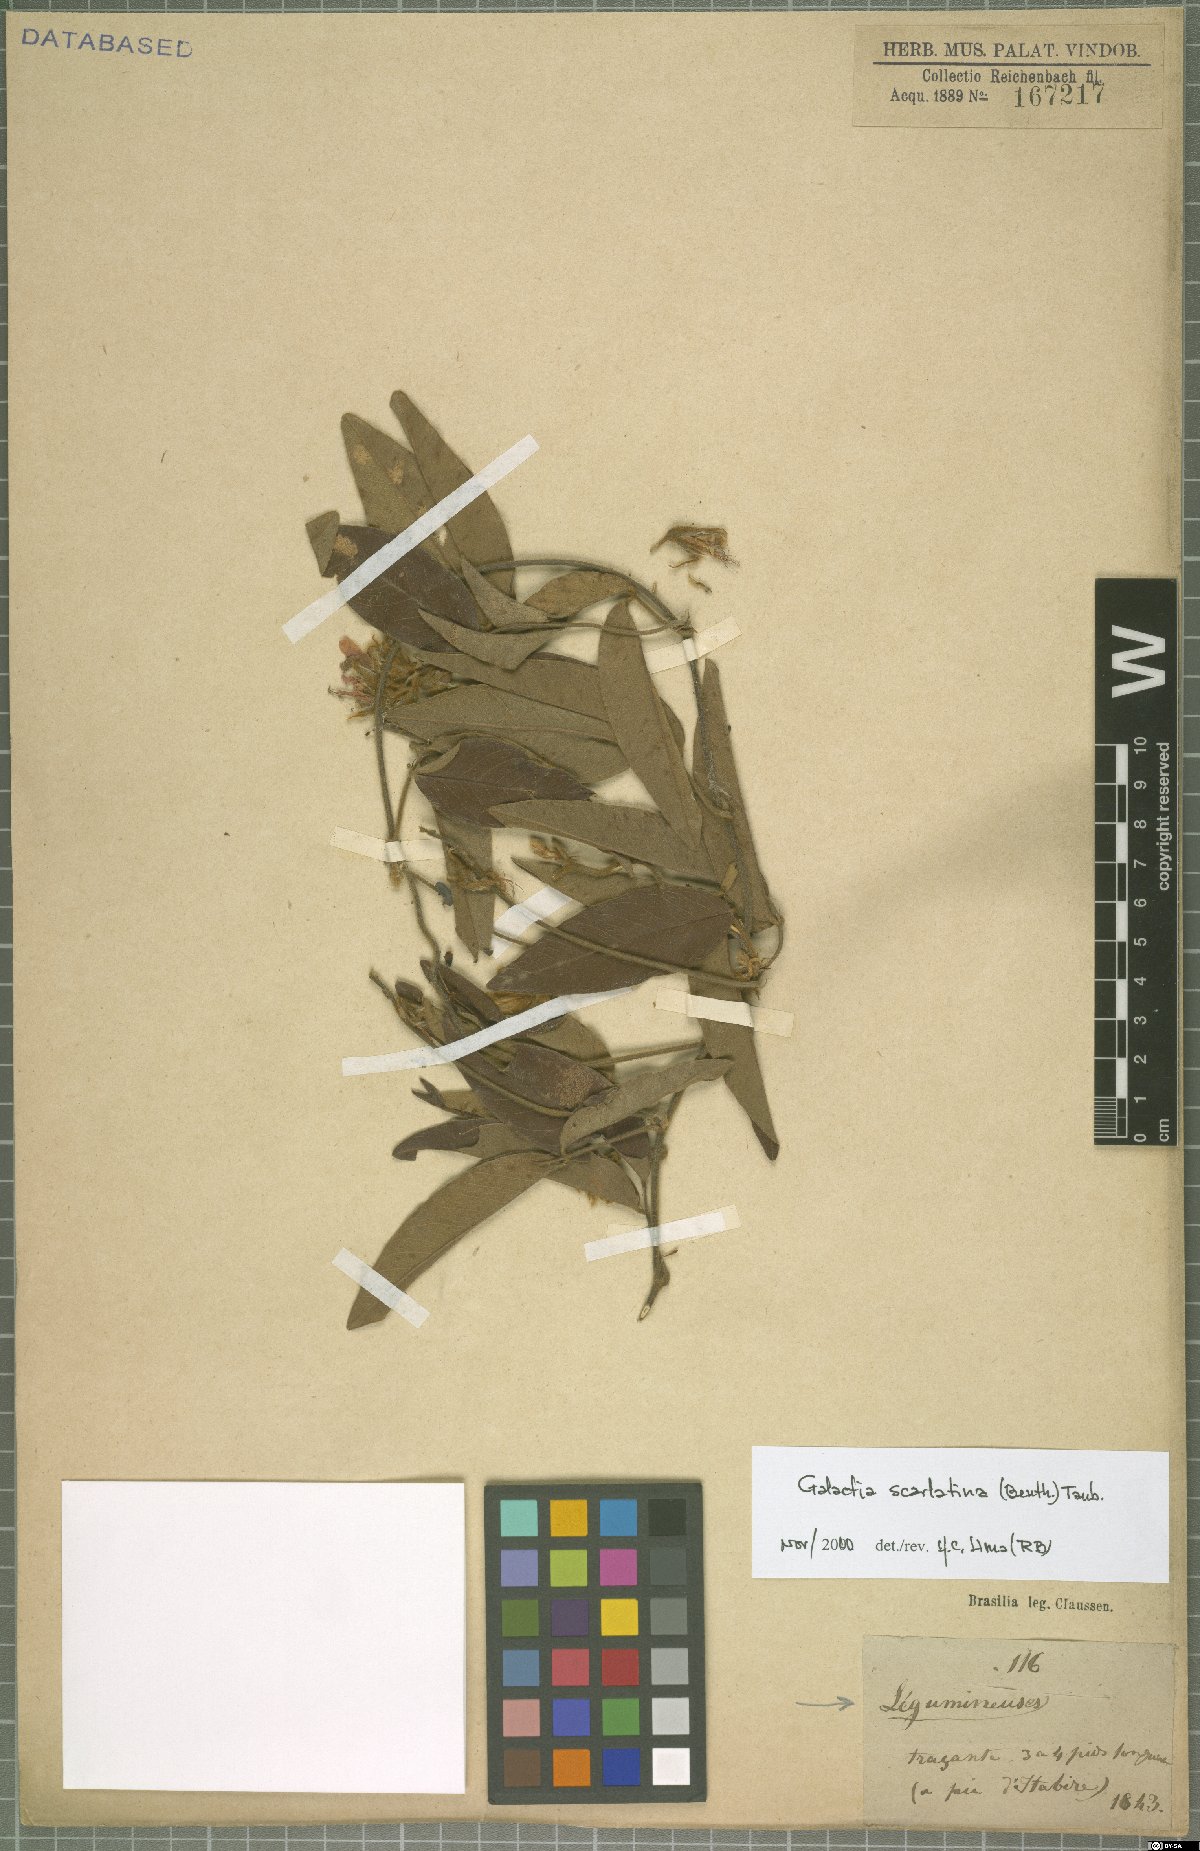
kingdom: Plantae
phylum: Tracheophyta
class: Magnoliopsida
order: Fabales
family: Fabaceae
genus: Betencourtia
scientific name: Betencourtia scarlatina
